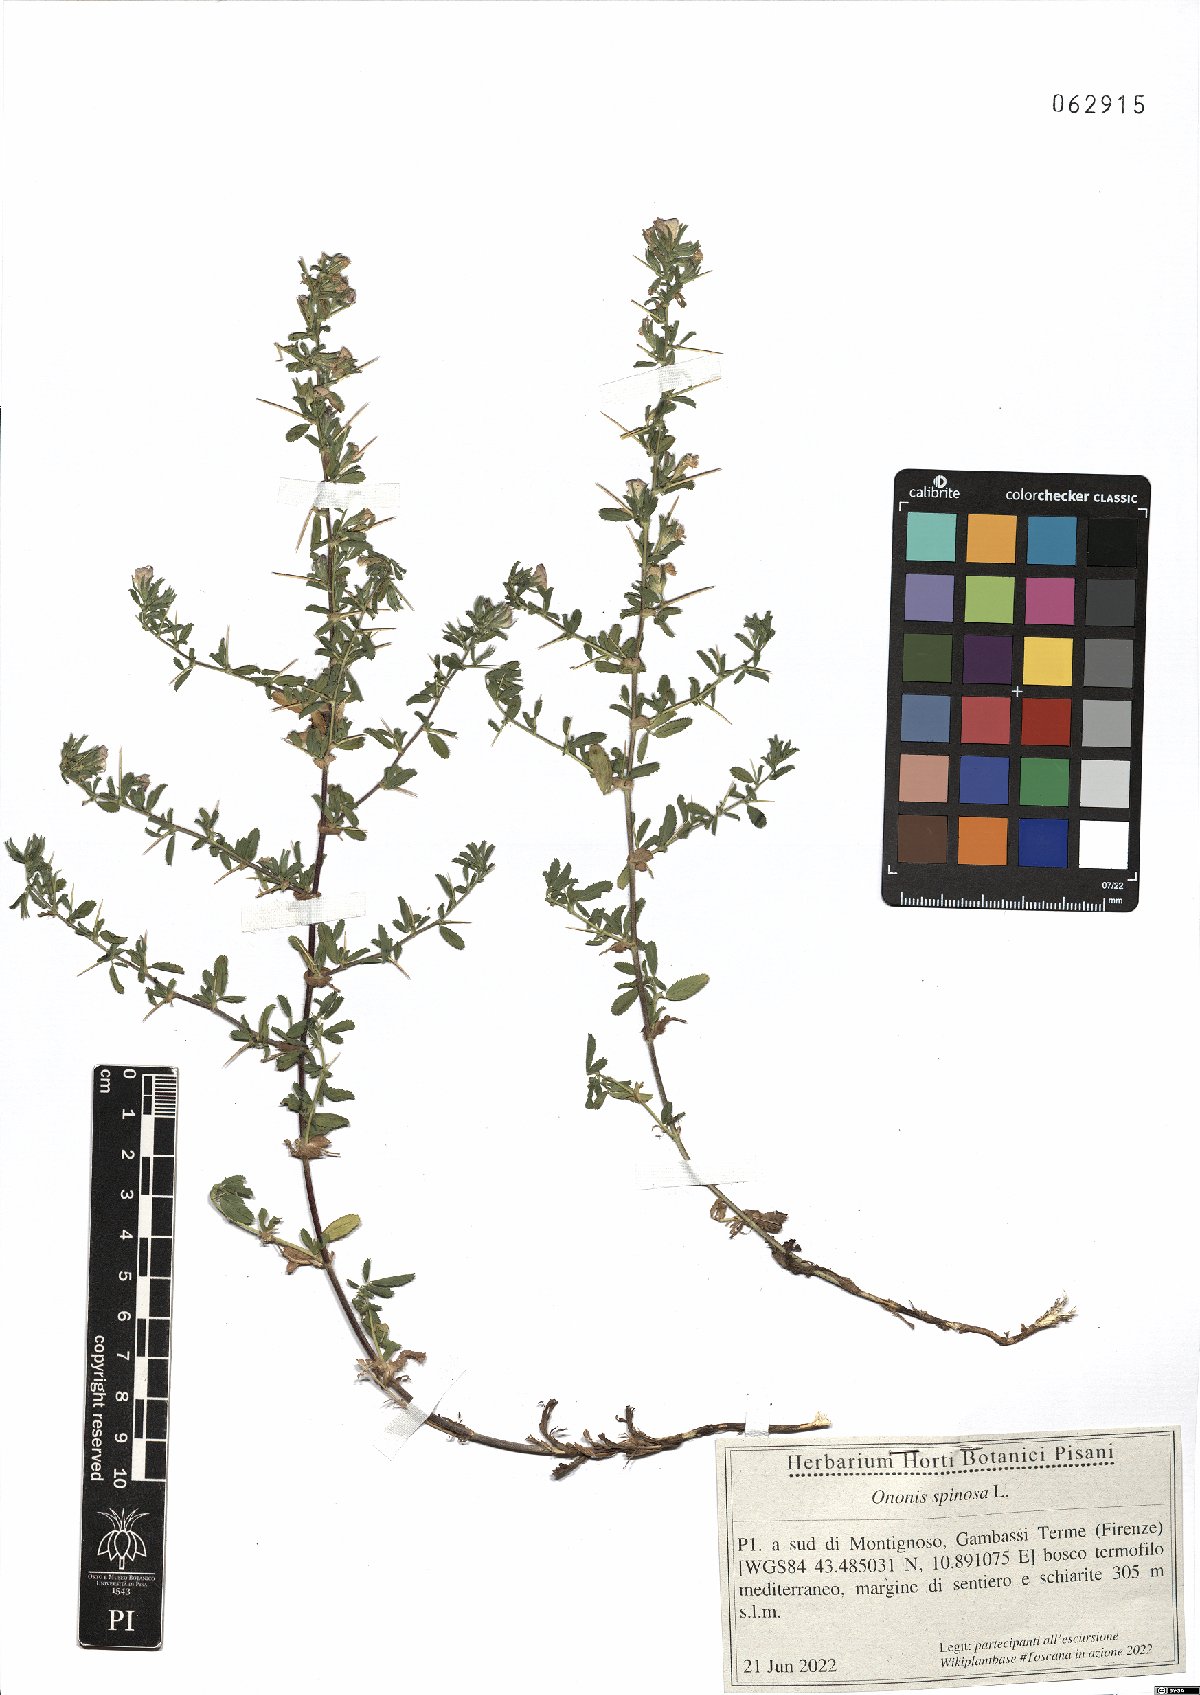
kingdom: Plantae
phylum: Tracheophyta
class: Magnoliopsida
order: Fabales
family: Fabaceae
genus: Ononis
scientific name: Ononis spinosa
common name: Spiny restharrow
